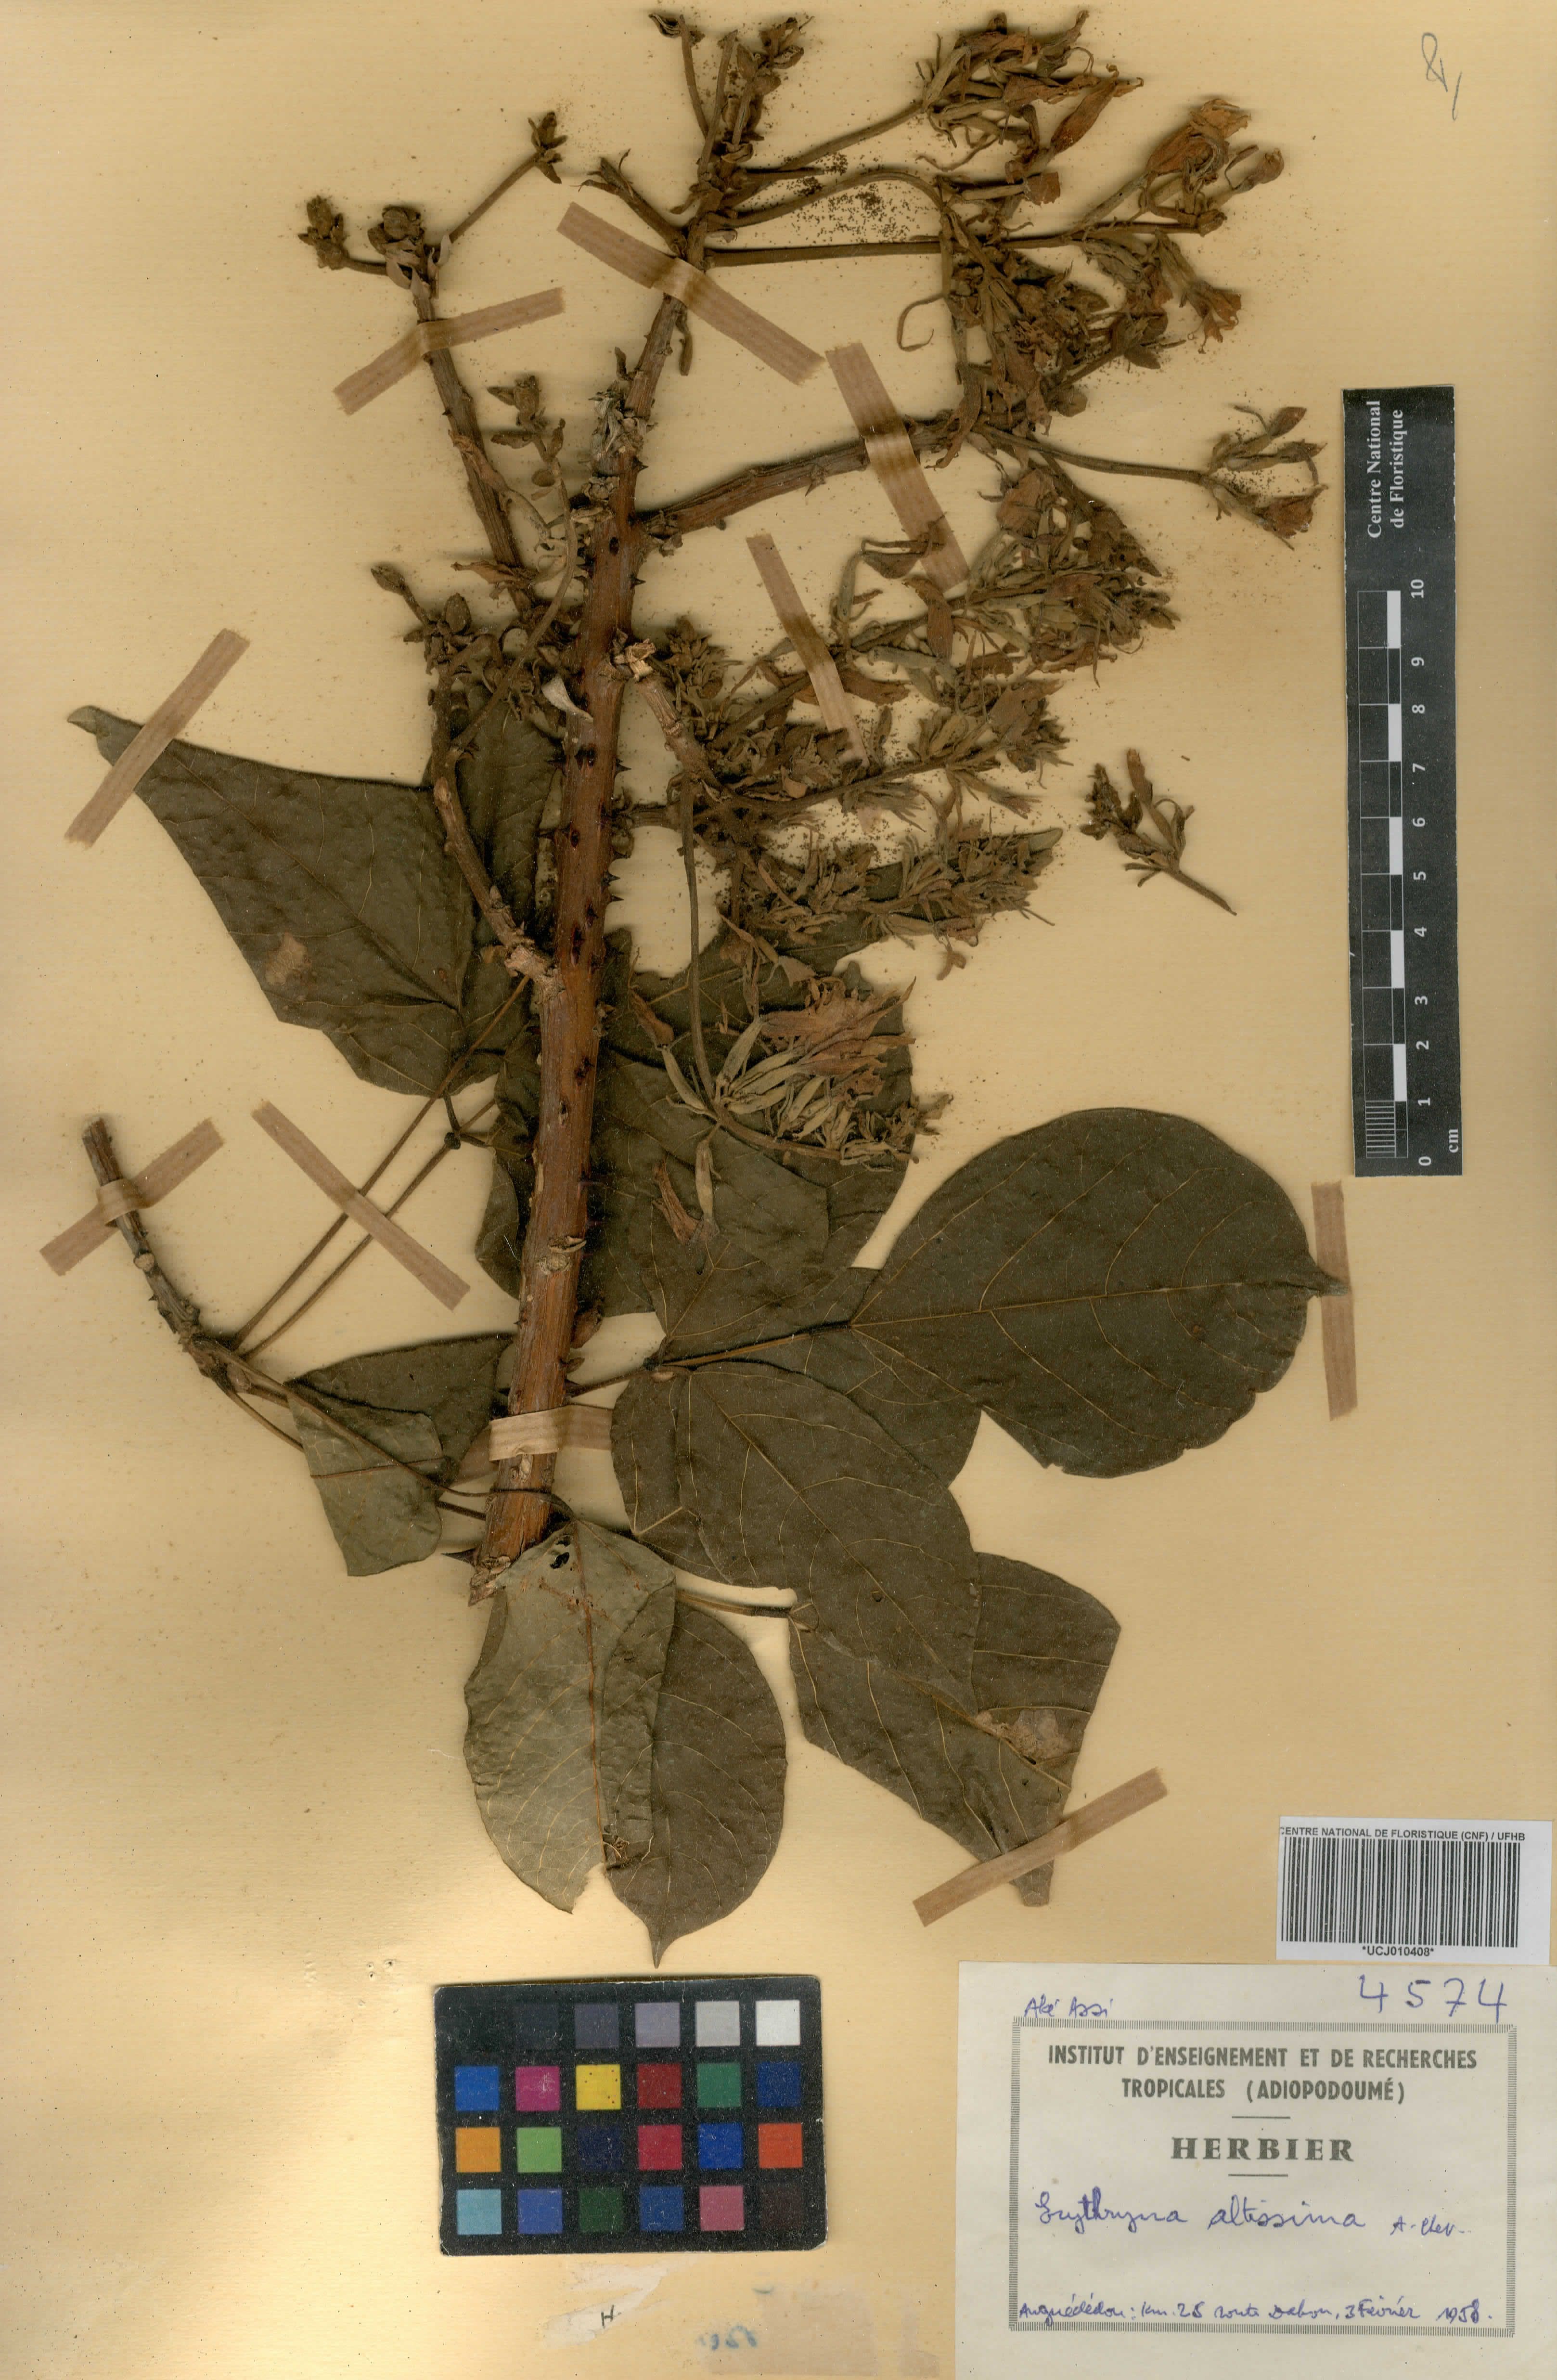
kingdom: Plantae
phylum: Tracheophyta
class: Magnoliopsida
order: Fabales
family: Fabaceae
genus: Erythrina
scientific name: Erythrina mildbraedii
